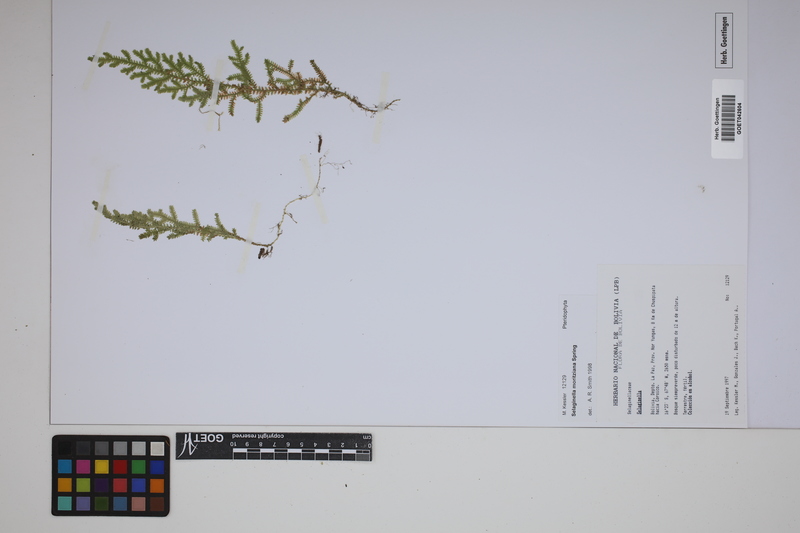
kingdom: Plantae
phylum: Tracheophyta
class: Lycopodiopsida
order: Selaginellales
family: Selaginellaceae
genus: Selaginella
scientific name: Selaginella moritziana
